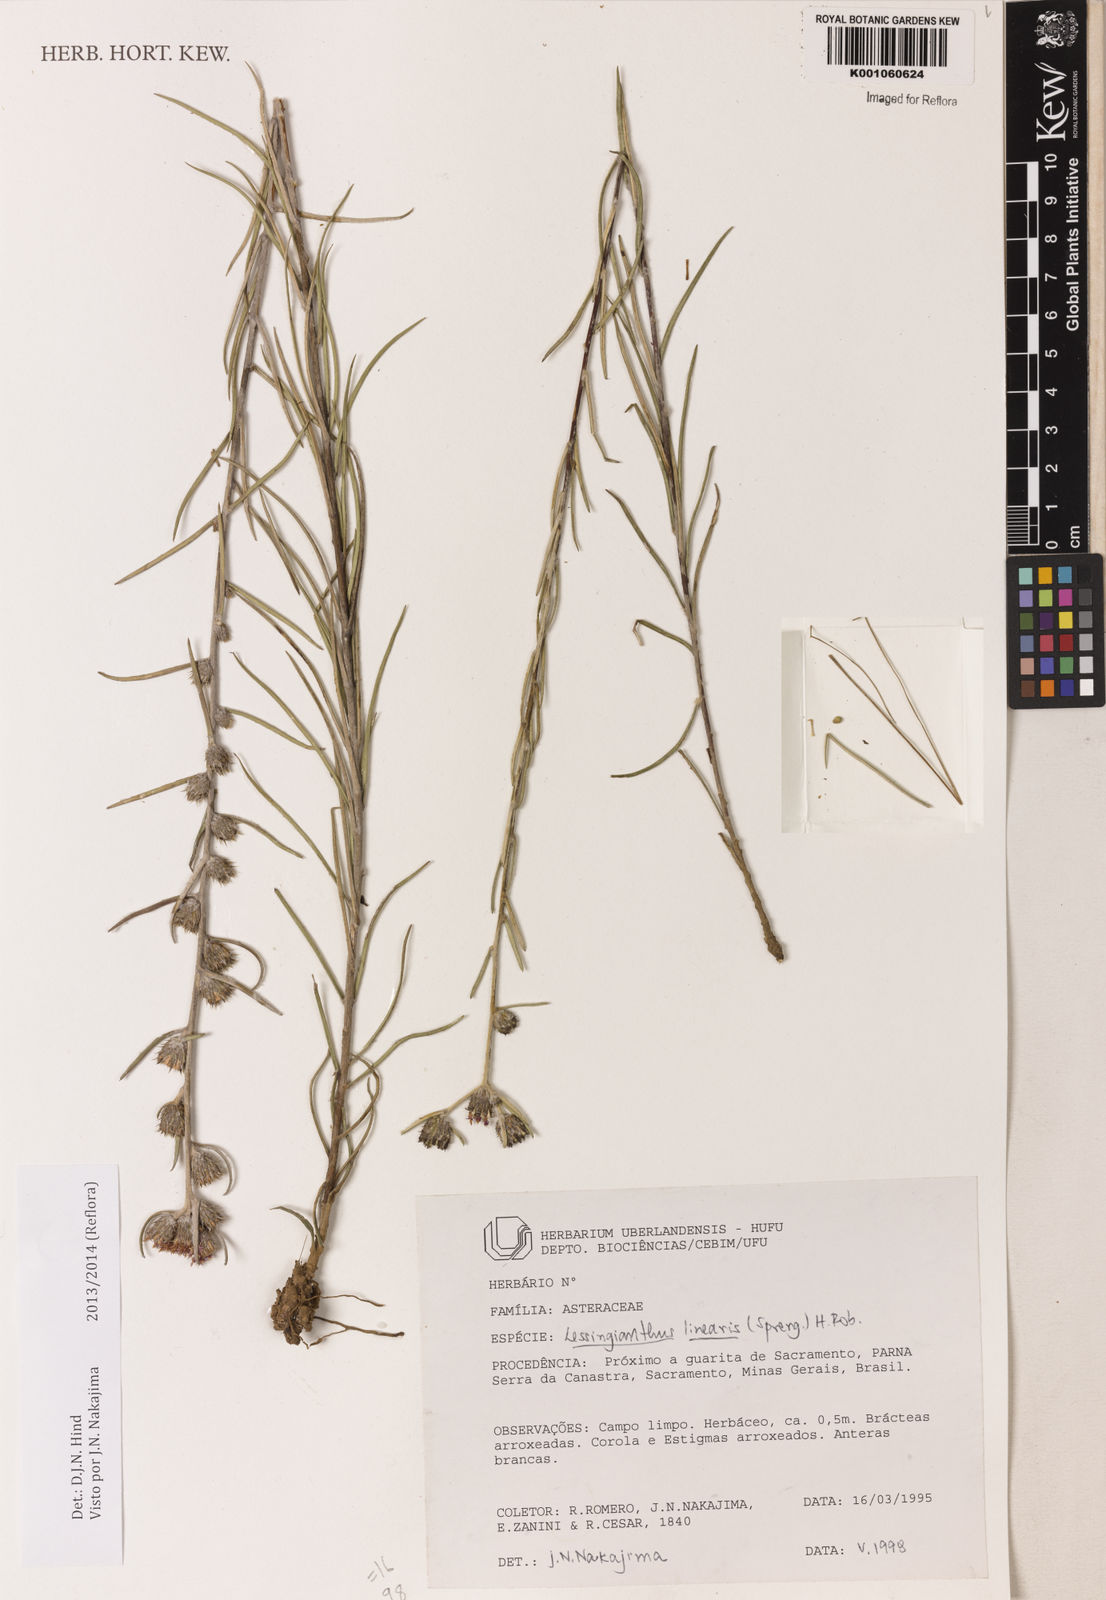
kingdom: Plantae
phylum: Tracheophyta
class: Magnoliopsida
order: Asterales
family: Asteraceae
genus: Vernonia
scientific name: Vernonia
